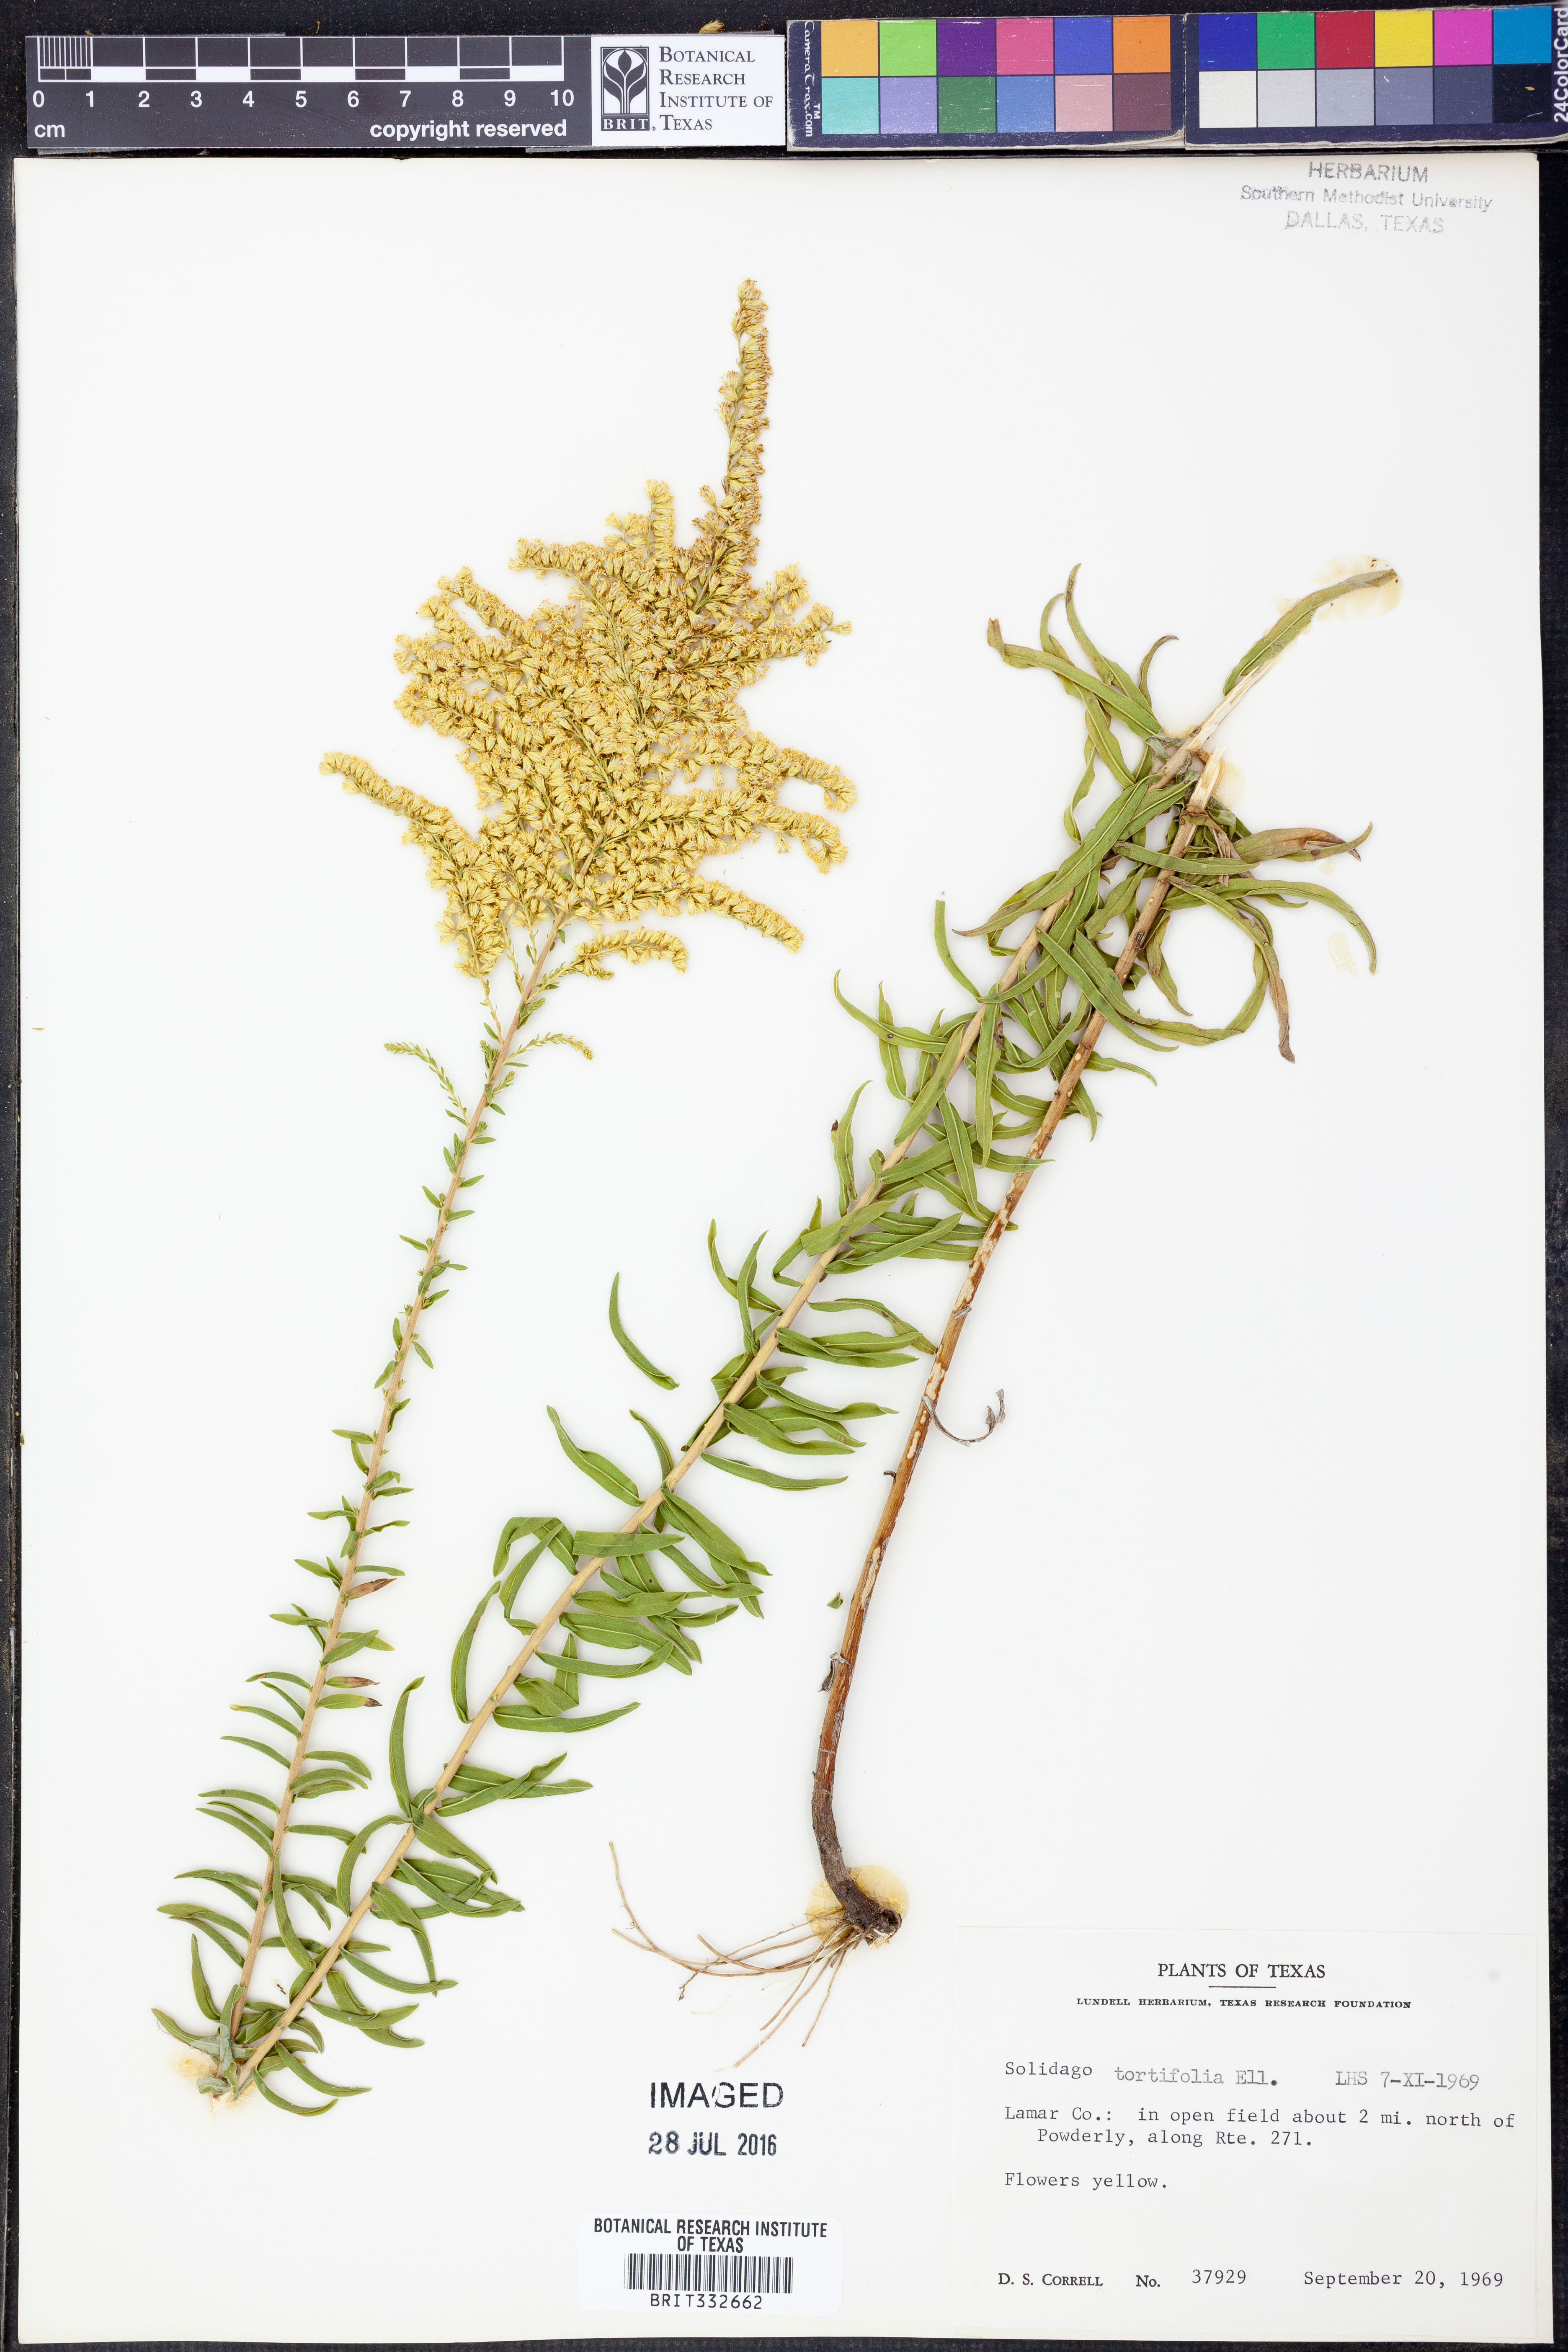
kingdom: Plantae
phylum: Tracheophyta
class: Magnoliopsida
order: Asterales
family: Asteraceae
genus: Solidago
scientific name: Solidago tortifolia
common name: Twisted-leaf goldenrod
